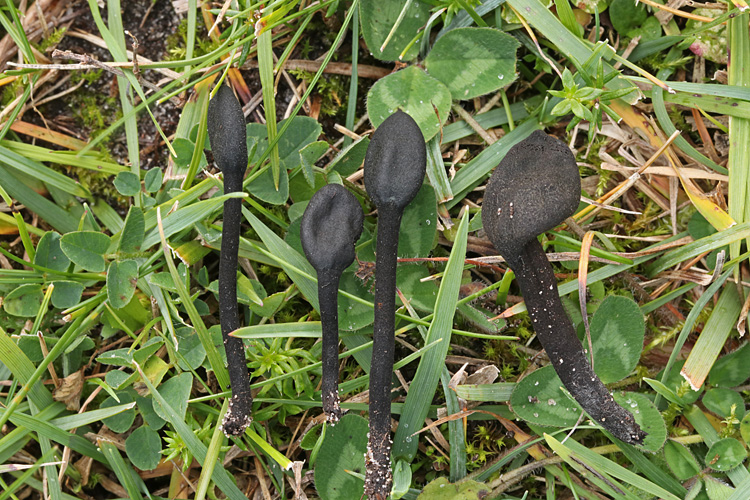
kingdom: Fungi
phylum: Ascomycota
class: Geoglossomycetes
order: Geoglossales
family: Geoglossaceae
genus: Trichoglossum
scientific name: Trichoglossum hirsutum
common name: håret jordtunge
